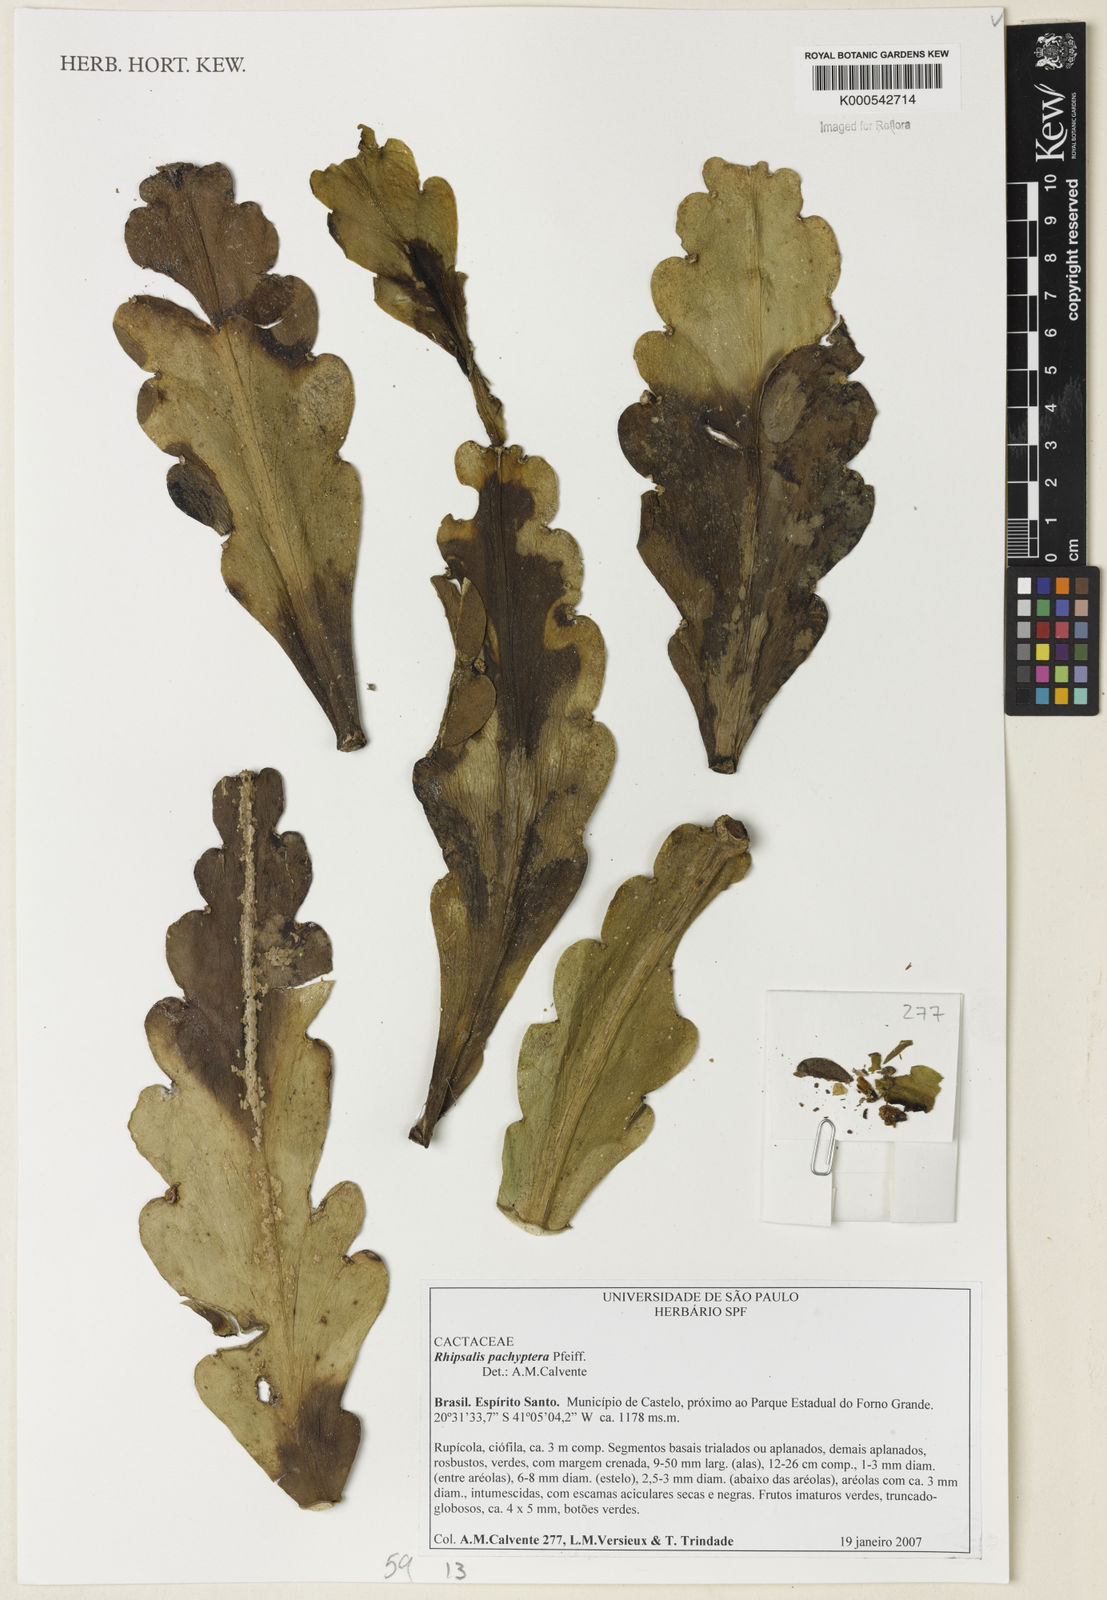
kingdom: Plantae
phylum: Tracheophyta
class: Magnoliopsida
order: Caryophyllales
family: Cactaceae
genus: Rhipsalis
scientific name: Rhipsalis pachyptera
